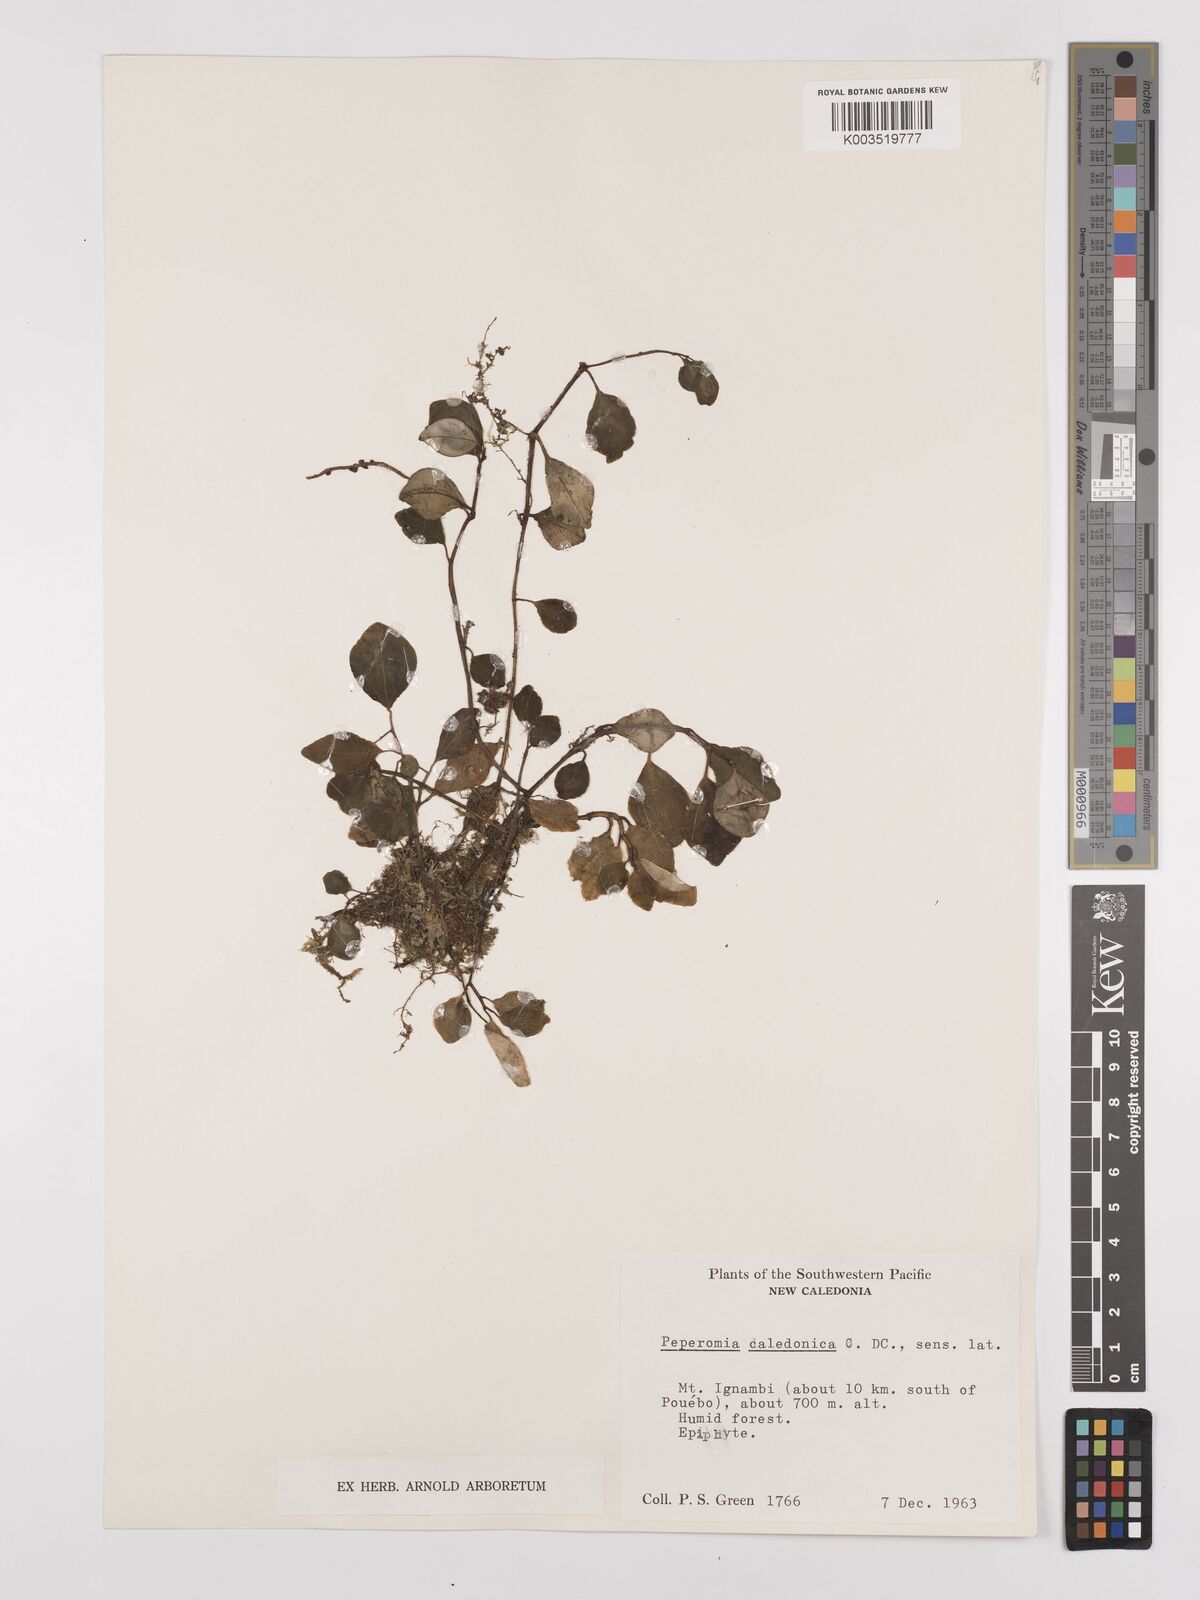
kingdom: Plantae
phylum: Tracheophyta
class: Magnoliopsida
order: Piperales
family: Piperaceae
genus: Peperomia
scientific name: Peperomia caledonica
